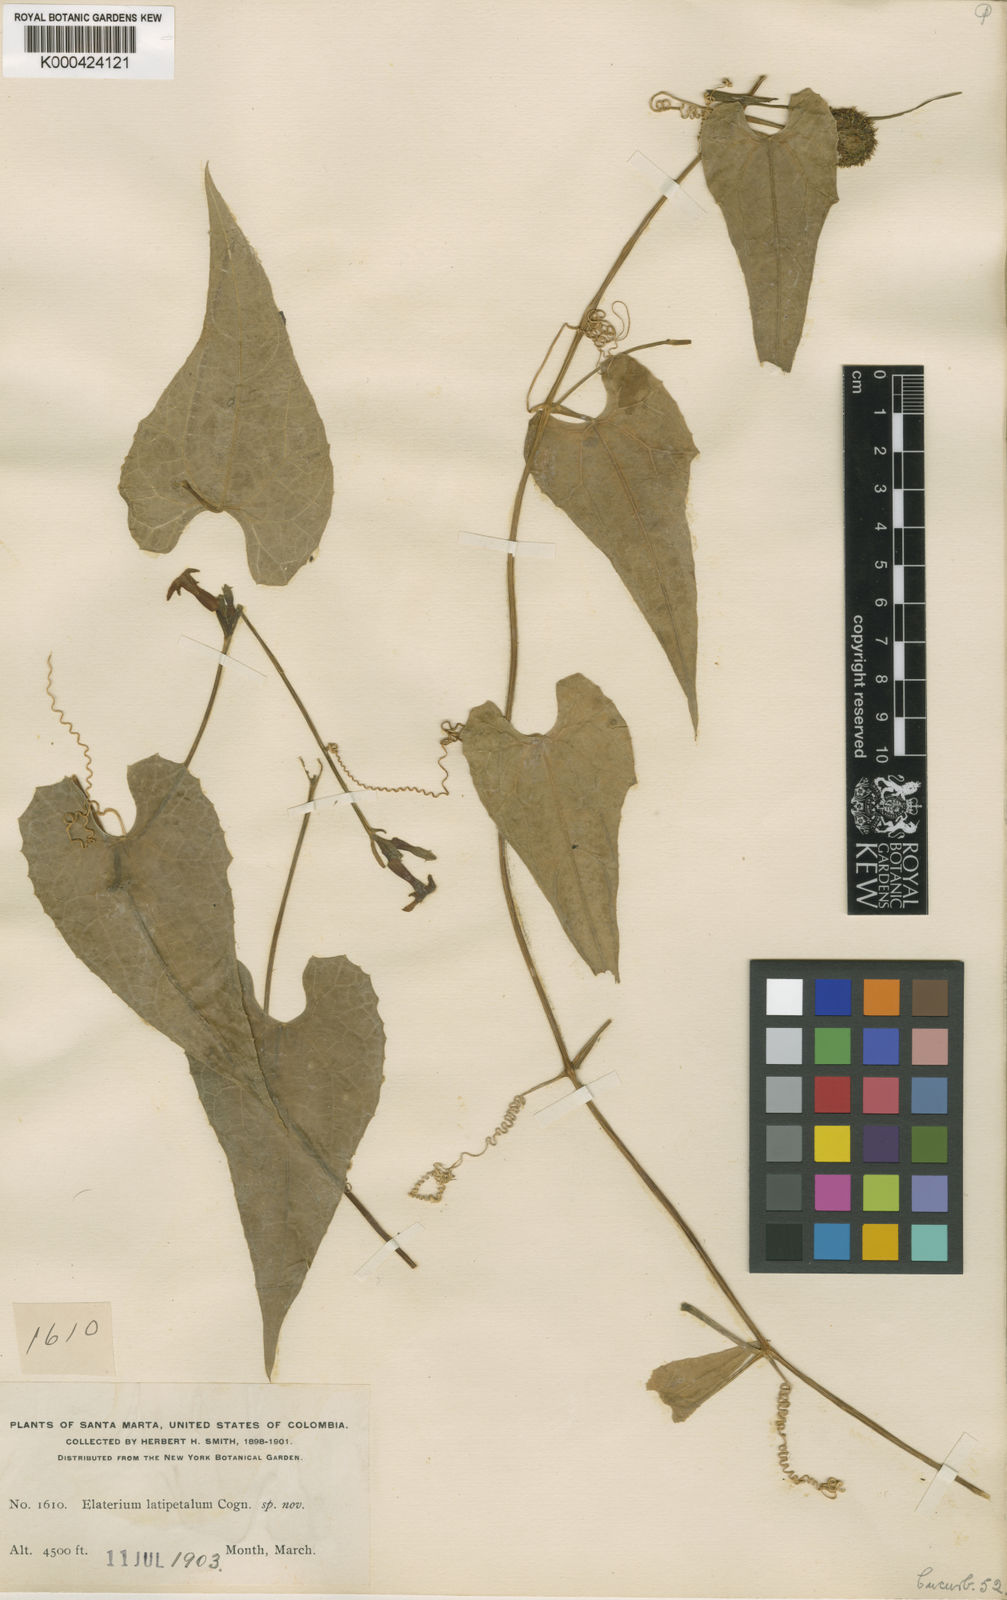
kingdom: Plantae
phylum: Tracheophyta
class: Magnoliopsida
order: Cucurbitales
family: Cucurbitaceae
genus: Cyclanthera
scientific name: Cyclanthera peruana
